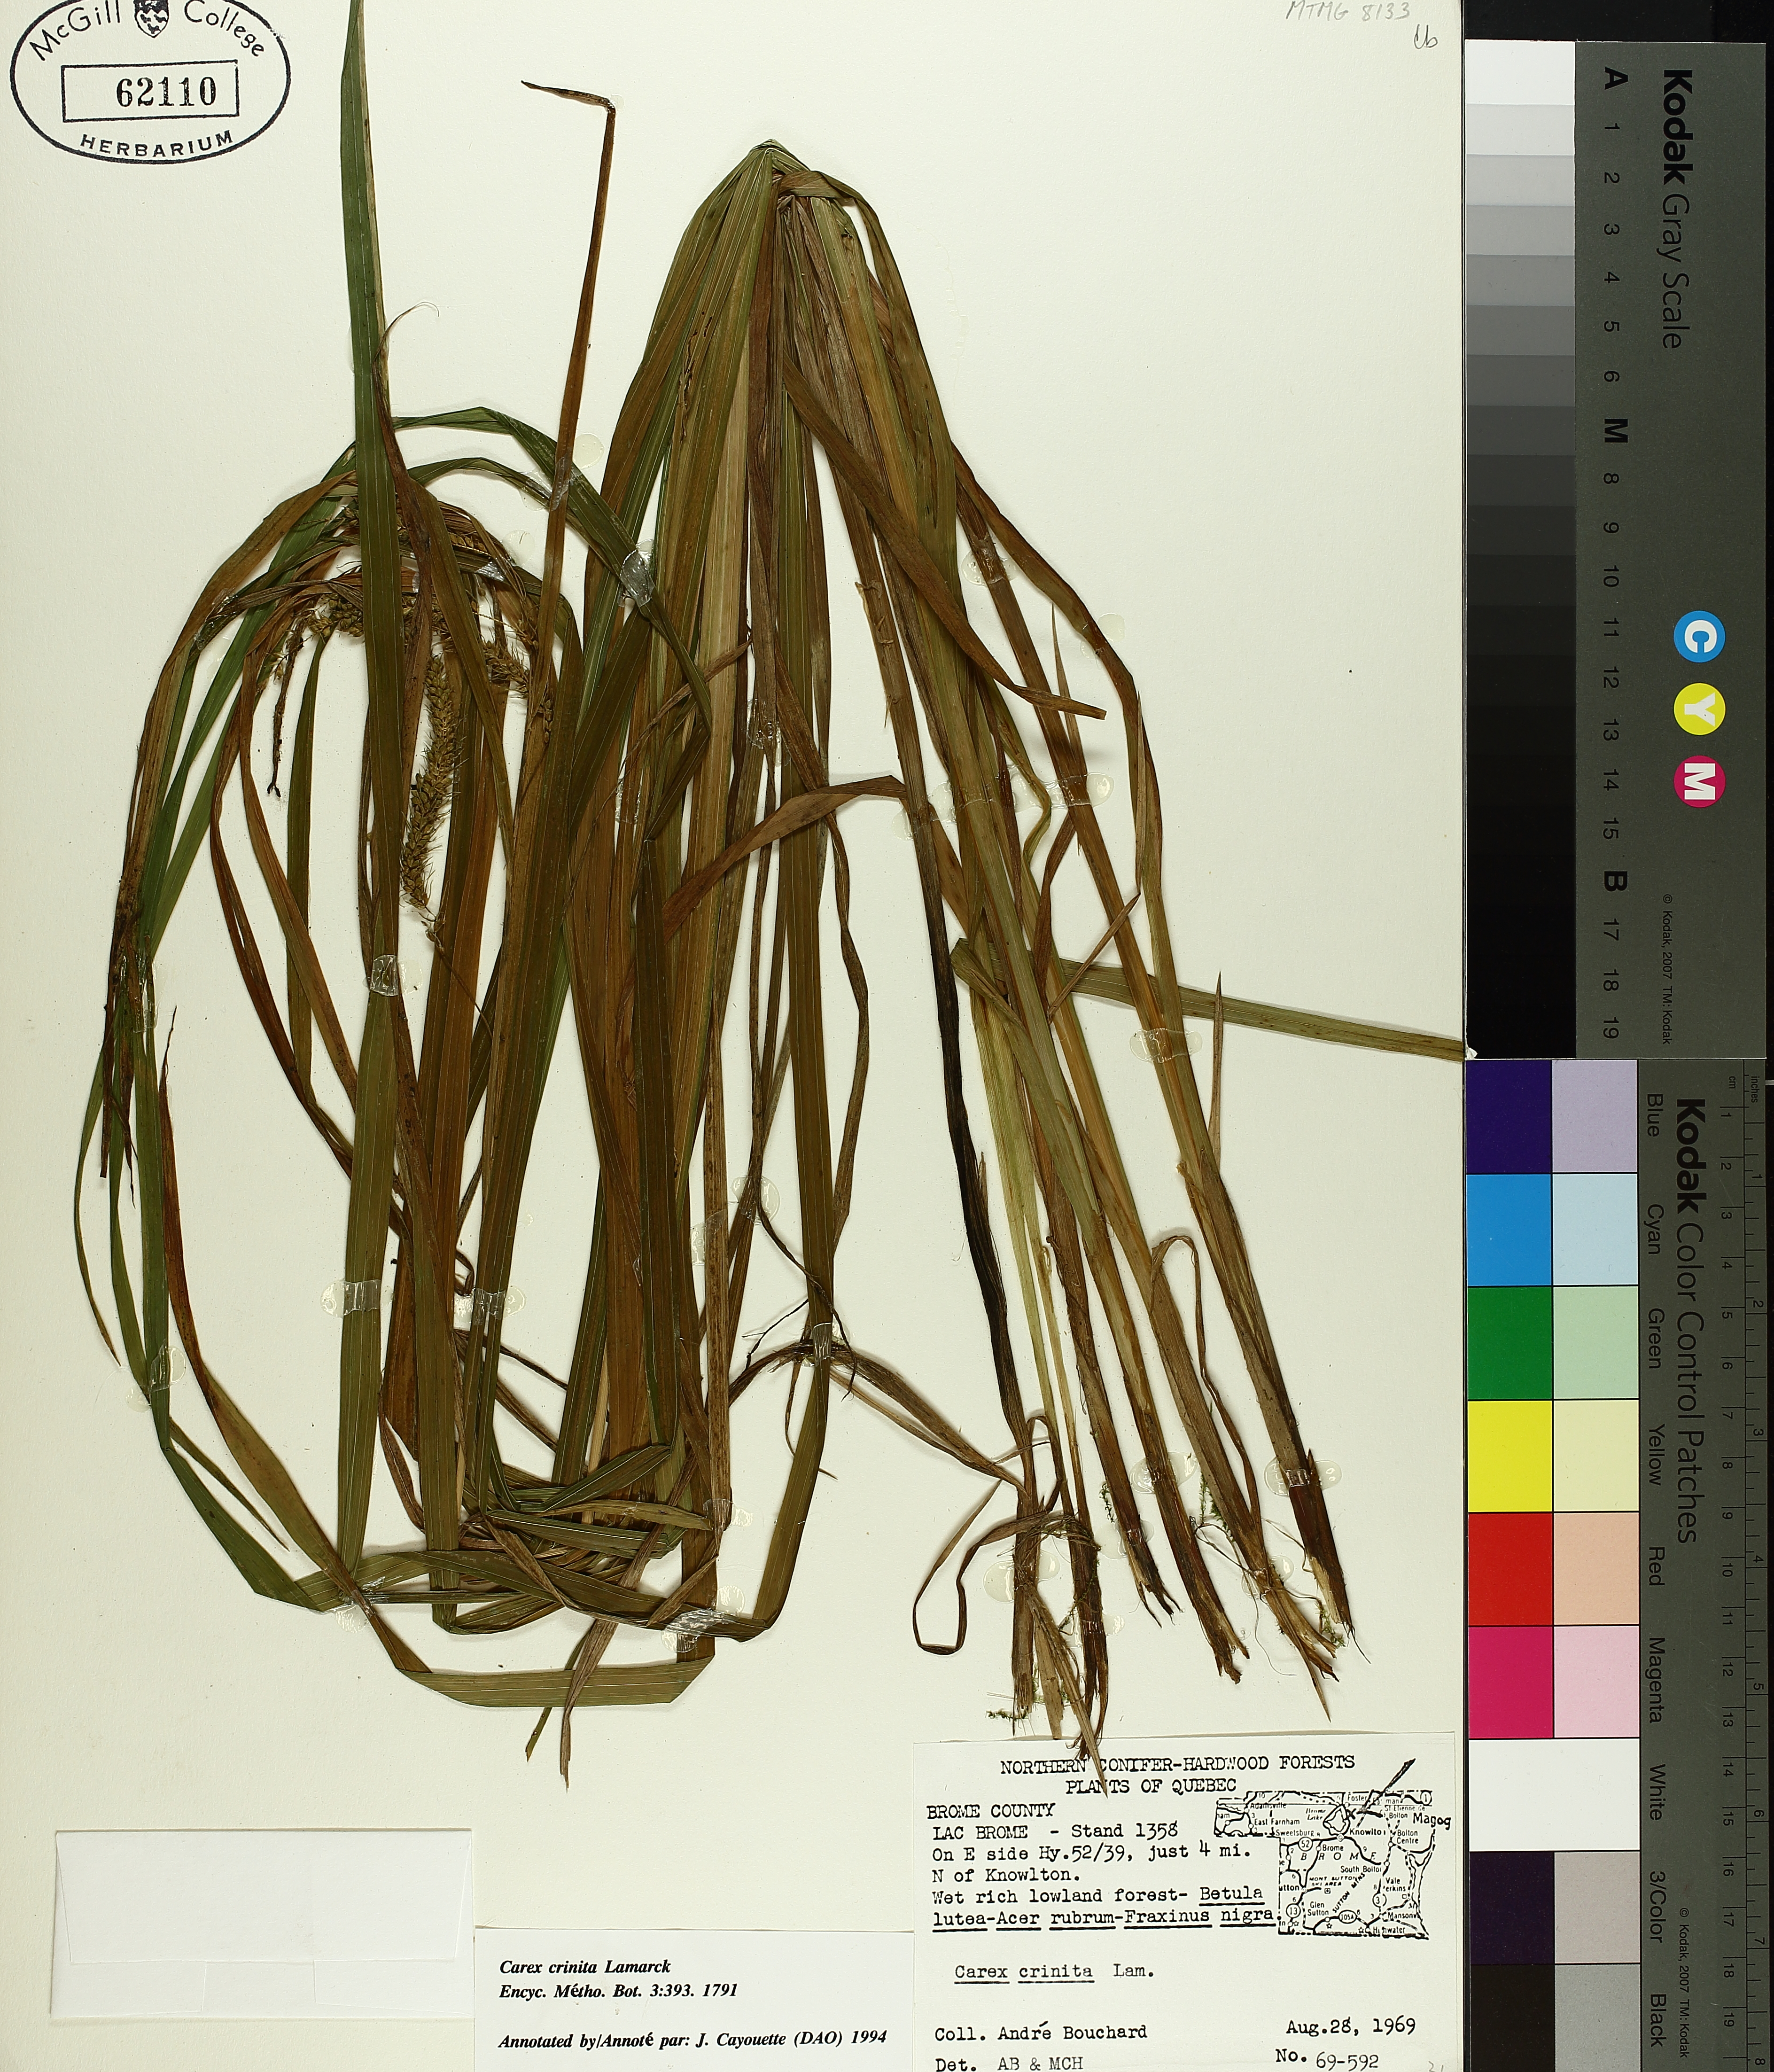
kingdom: Plantae
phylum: Tracheophyta
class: Liliopsida
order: Poales
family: Cyperaceae
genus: Carex
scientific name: Carex crinita
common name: Fringed sedge
